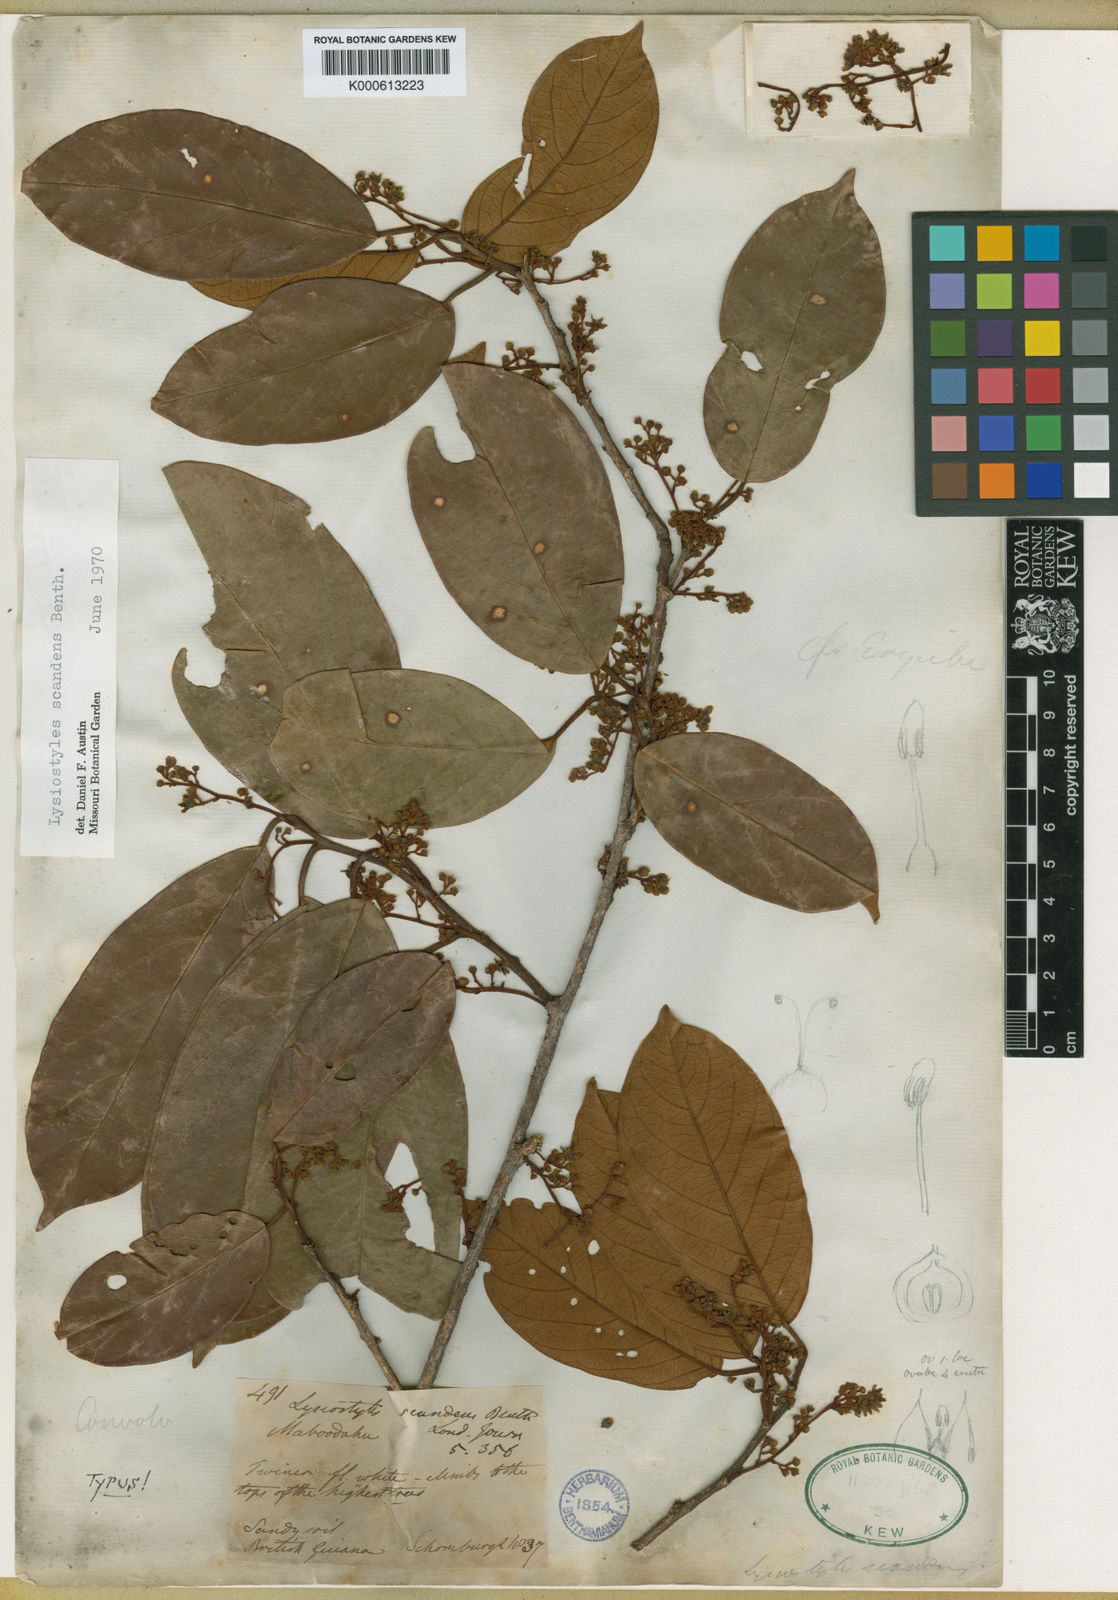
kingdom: Plantae
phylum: Tracheophyta
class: Magnoliopsida
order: Solanales
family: Convolvulaceae
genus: Lysiostyles
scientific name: Lysiostyles scandens
